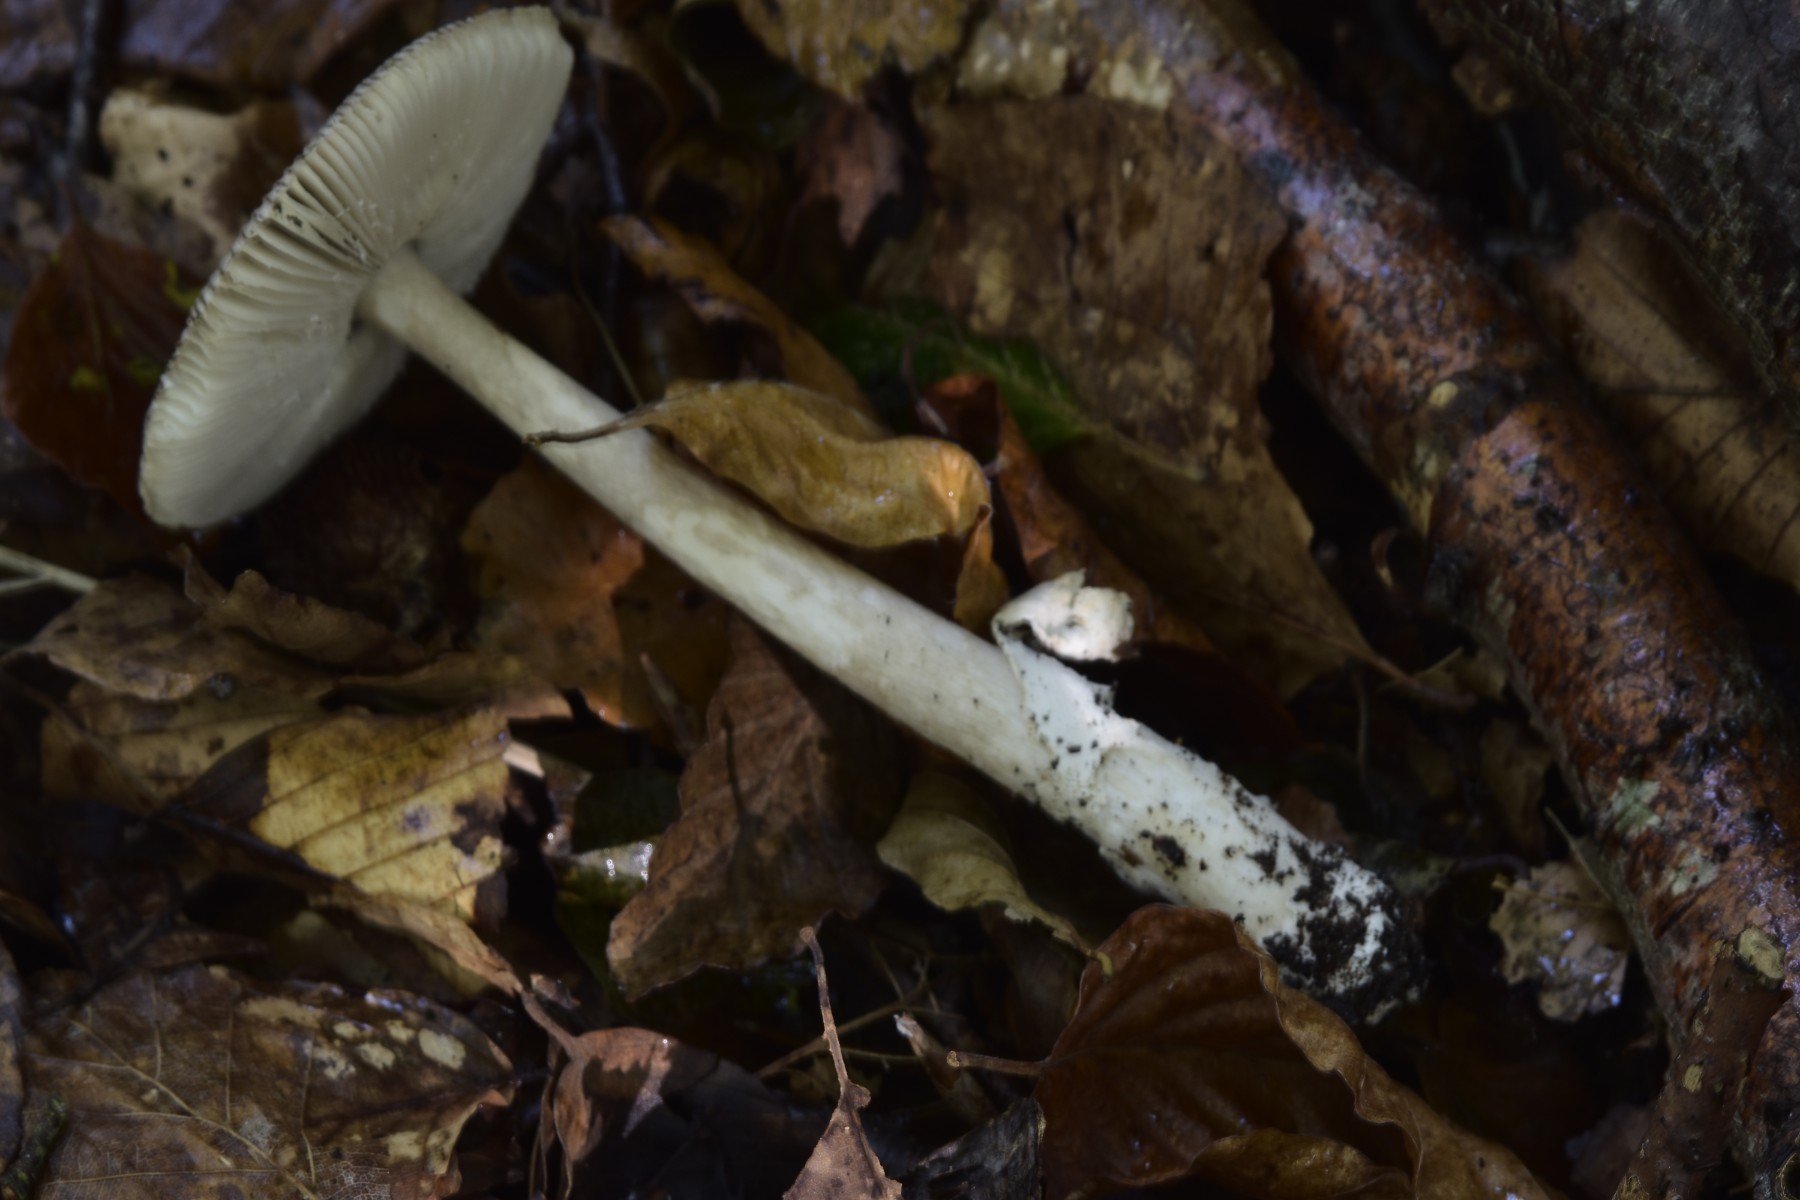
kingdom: Fungi
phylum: Basidiomycota
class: Agaricomycetes
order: Agaricales
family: Amanitaceae
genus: Amanita
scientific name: Amanita vaginata
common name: grå kam-fluesvamp
